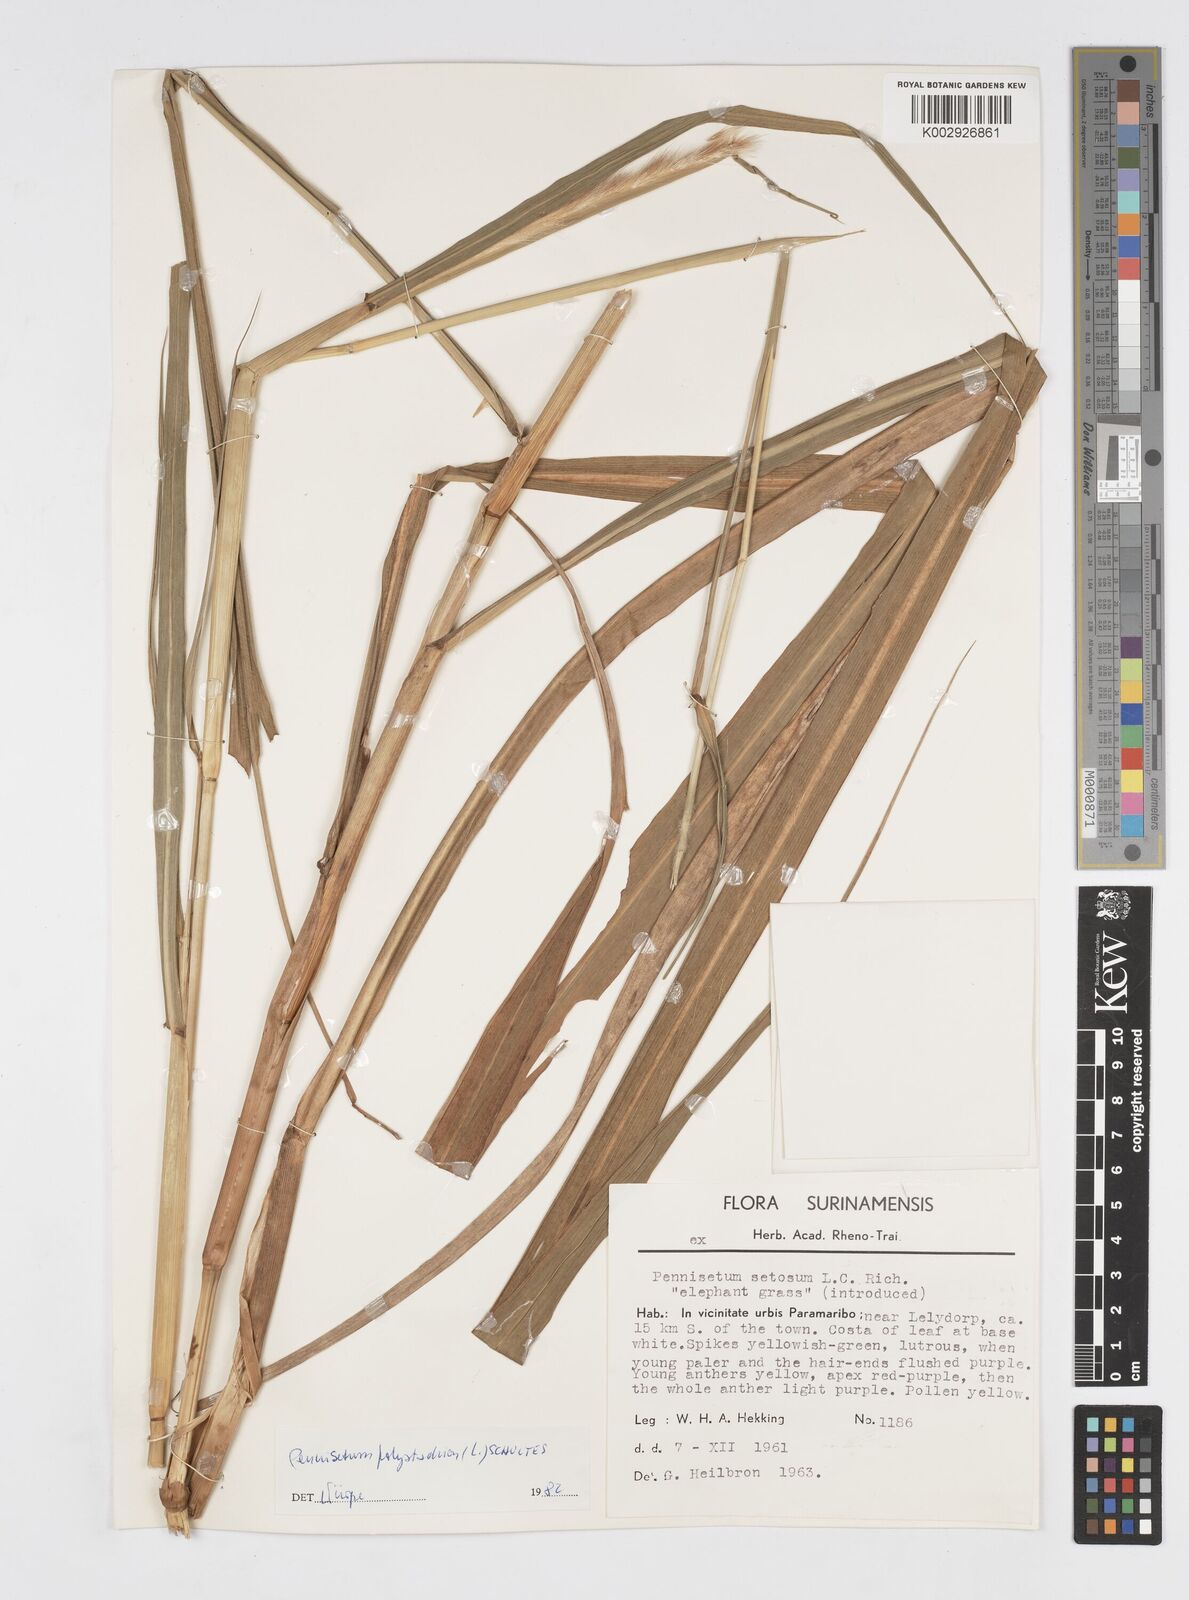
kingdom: Plantae
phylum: Tracheophyta
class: Liliopsida
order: Poales
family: Poaceae
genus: Cenchrus
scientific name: Cenchrus setosus
